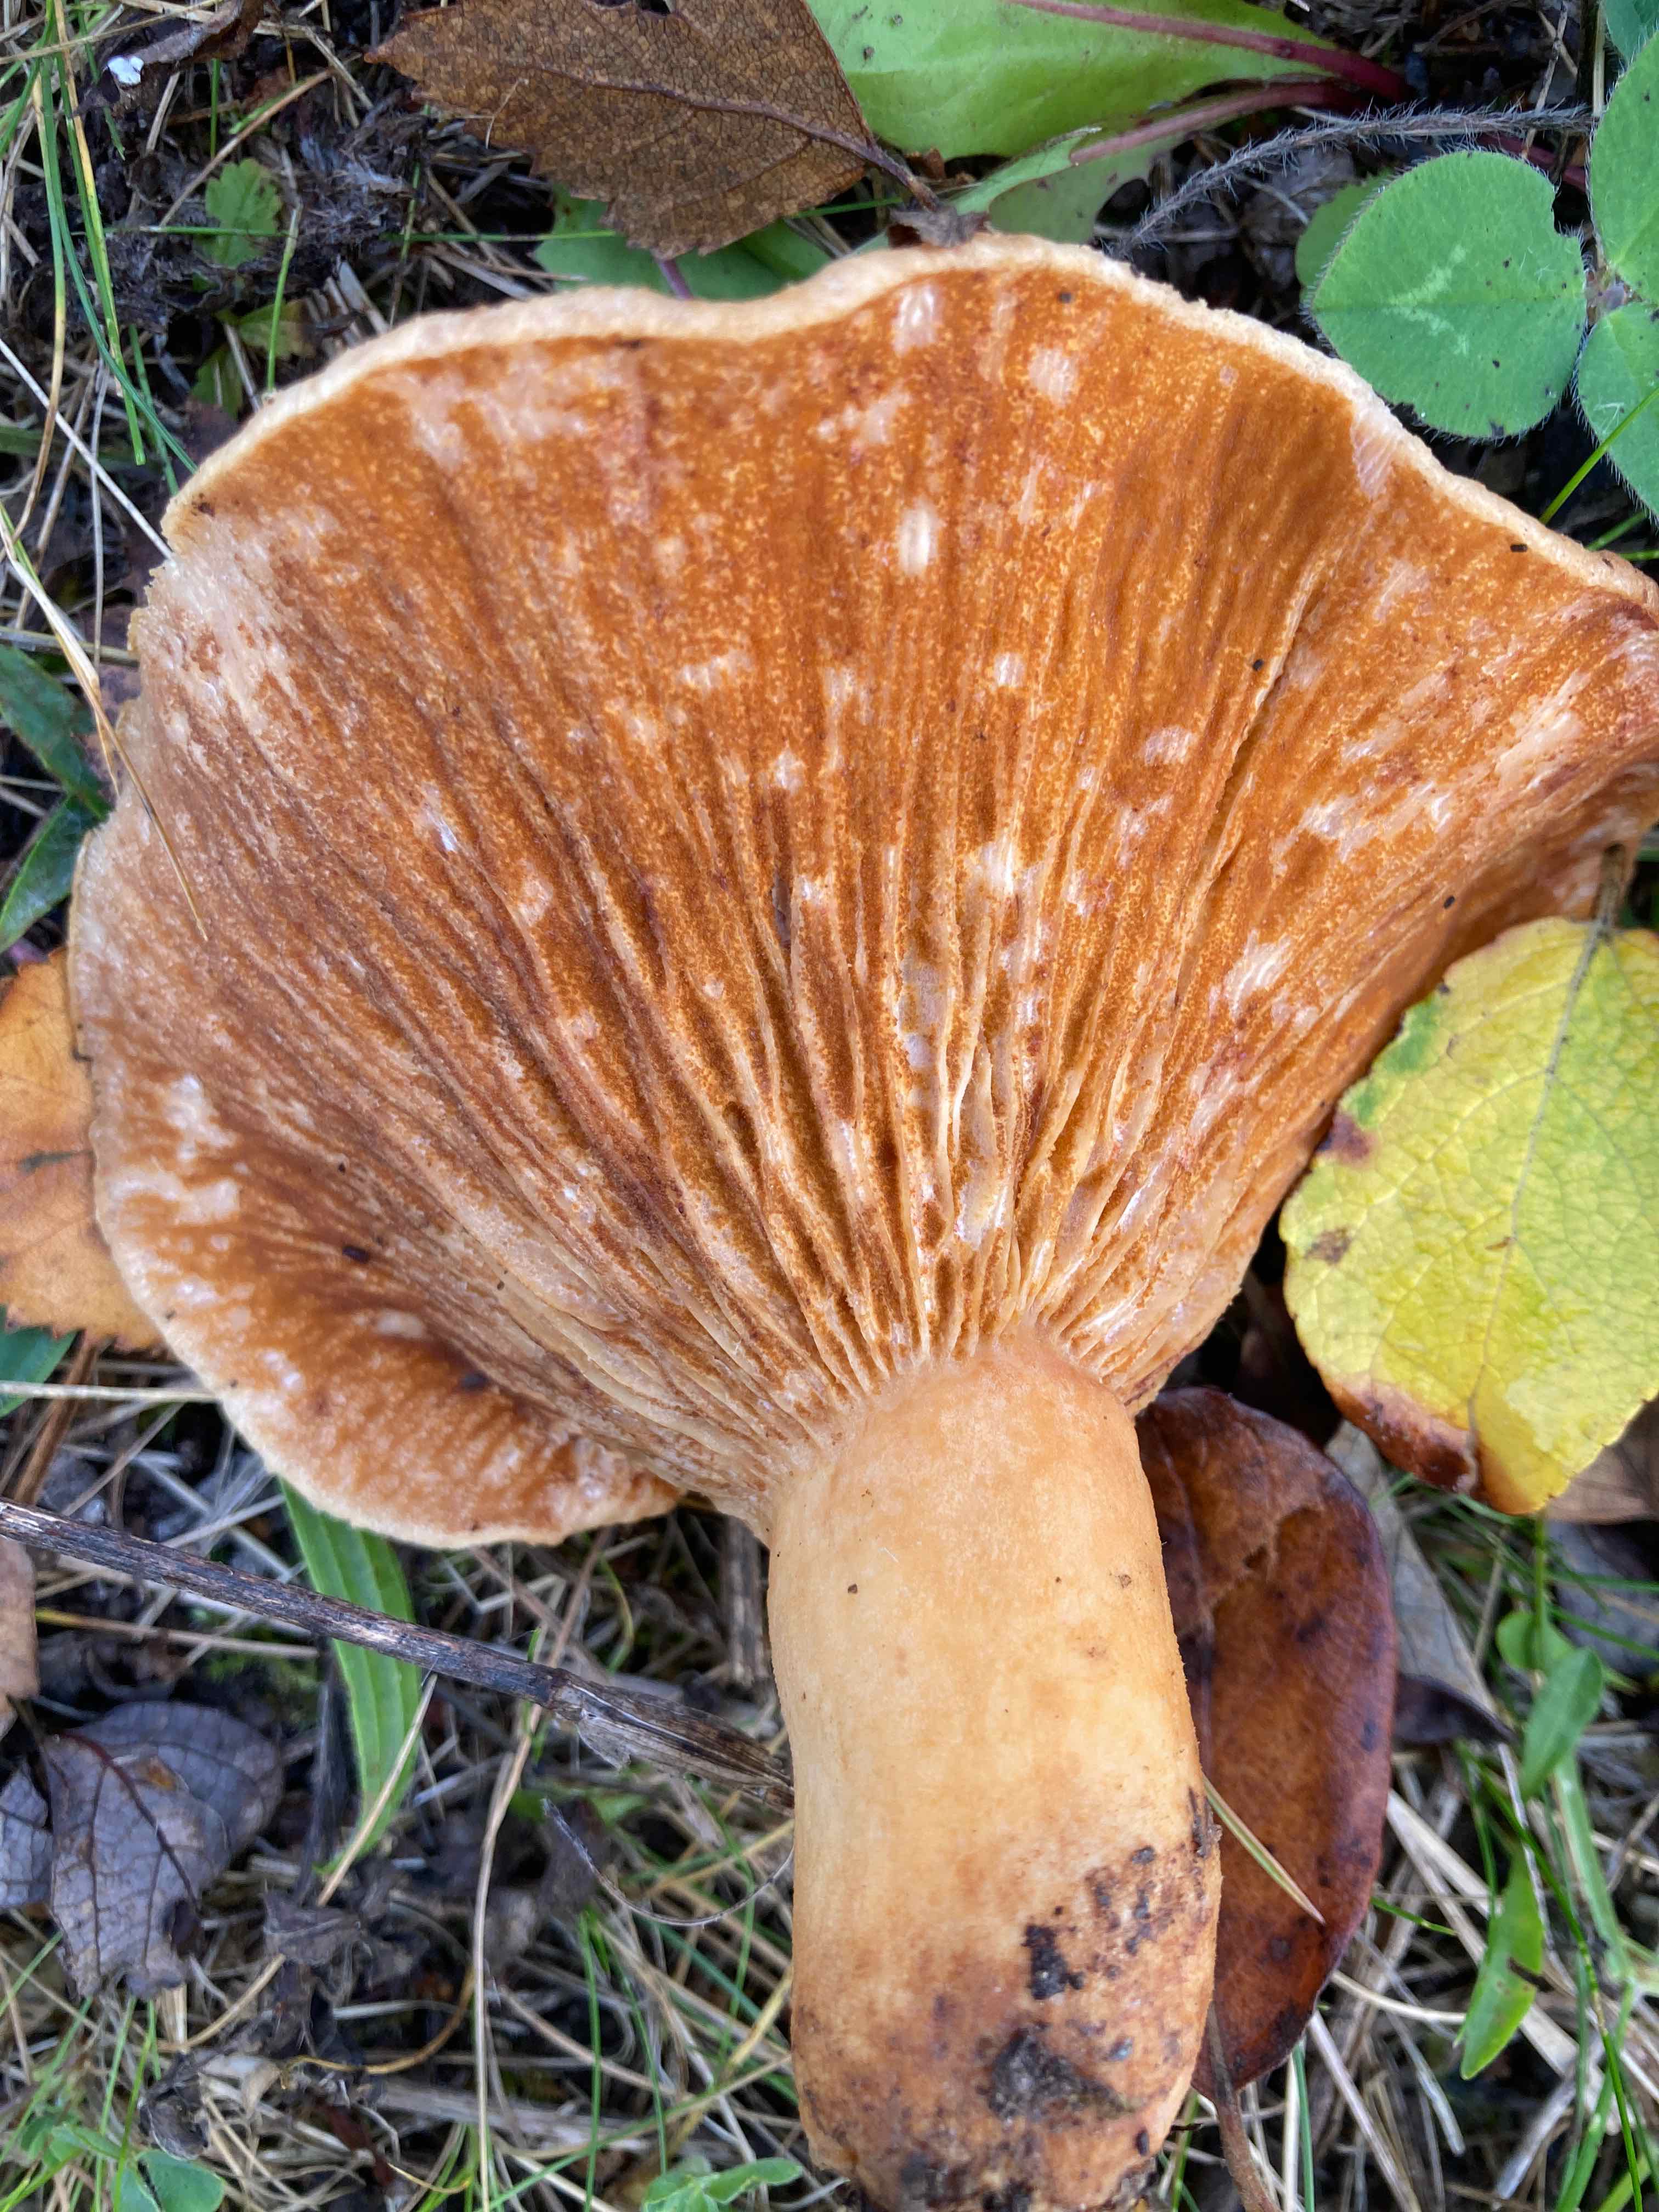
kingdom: Fungi
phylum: Ascomycota
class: Sordariomycetes
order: Hypocreales
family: Hypocreaceae
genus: Hypomyces
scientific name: Hypomyces spadiceus
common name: mælkeskæg-snylteskorpe
